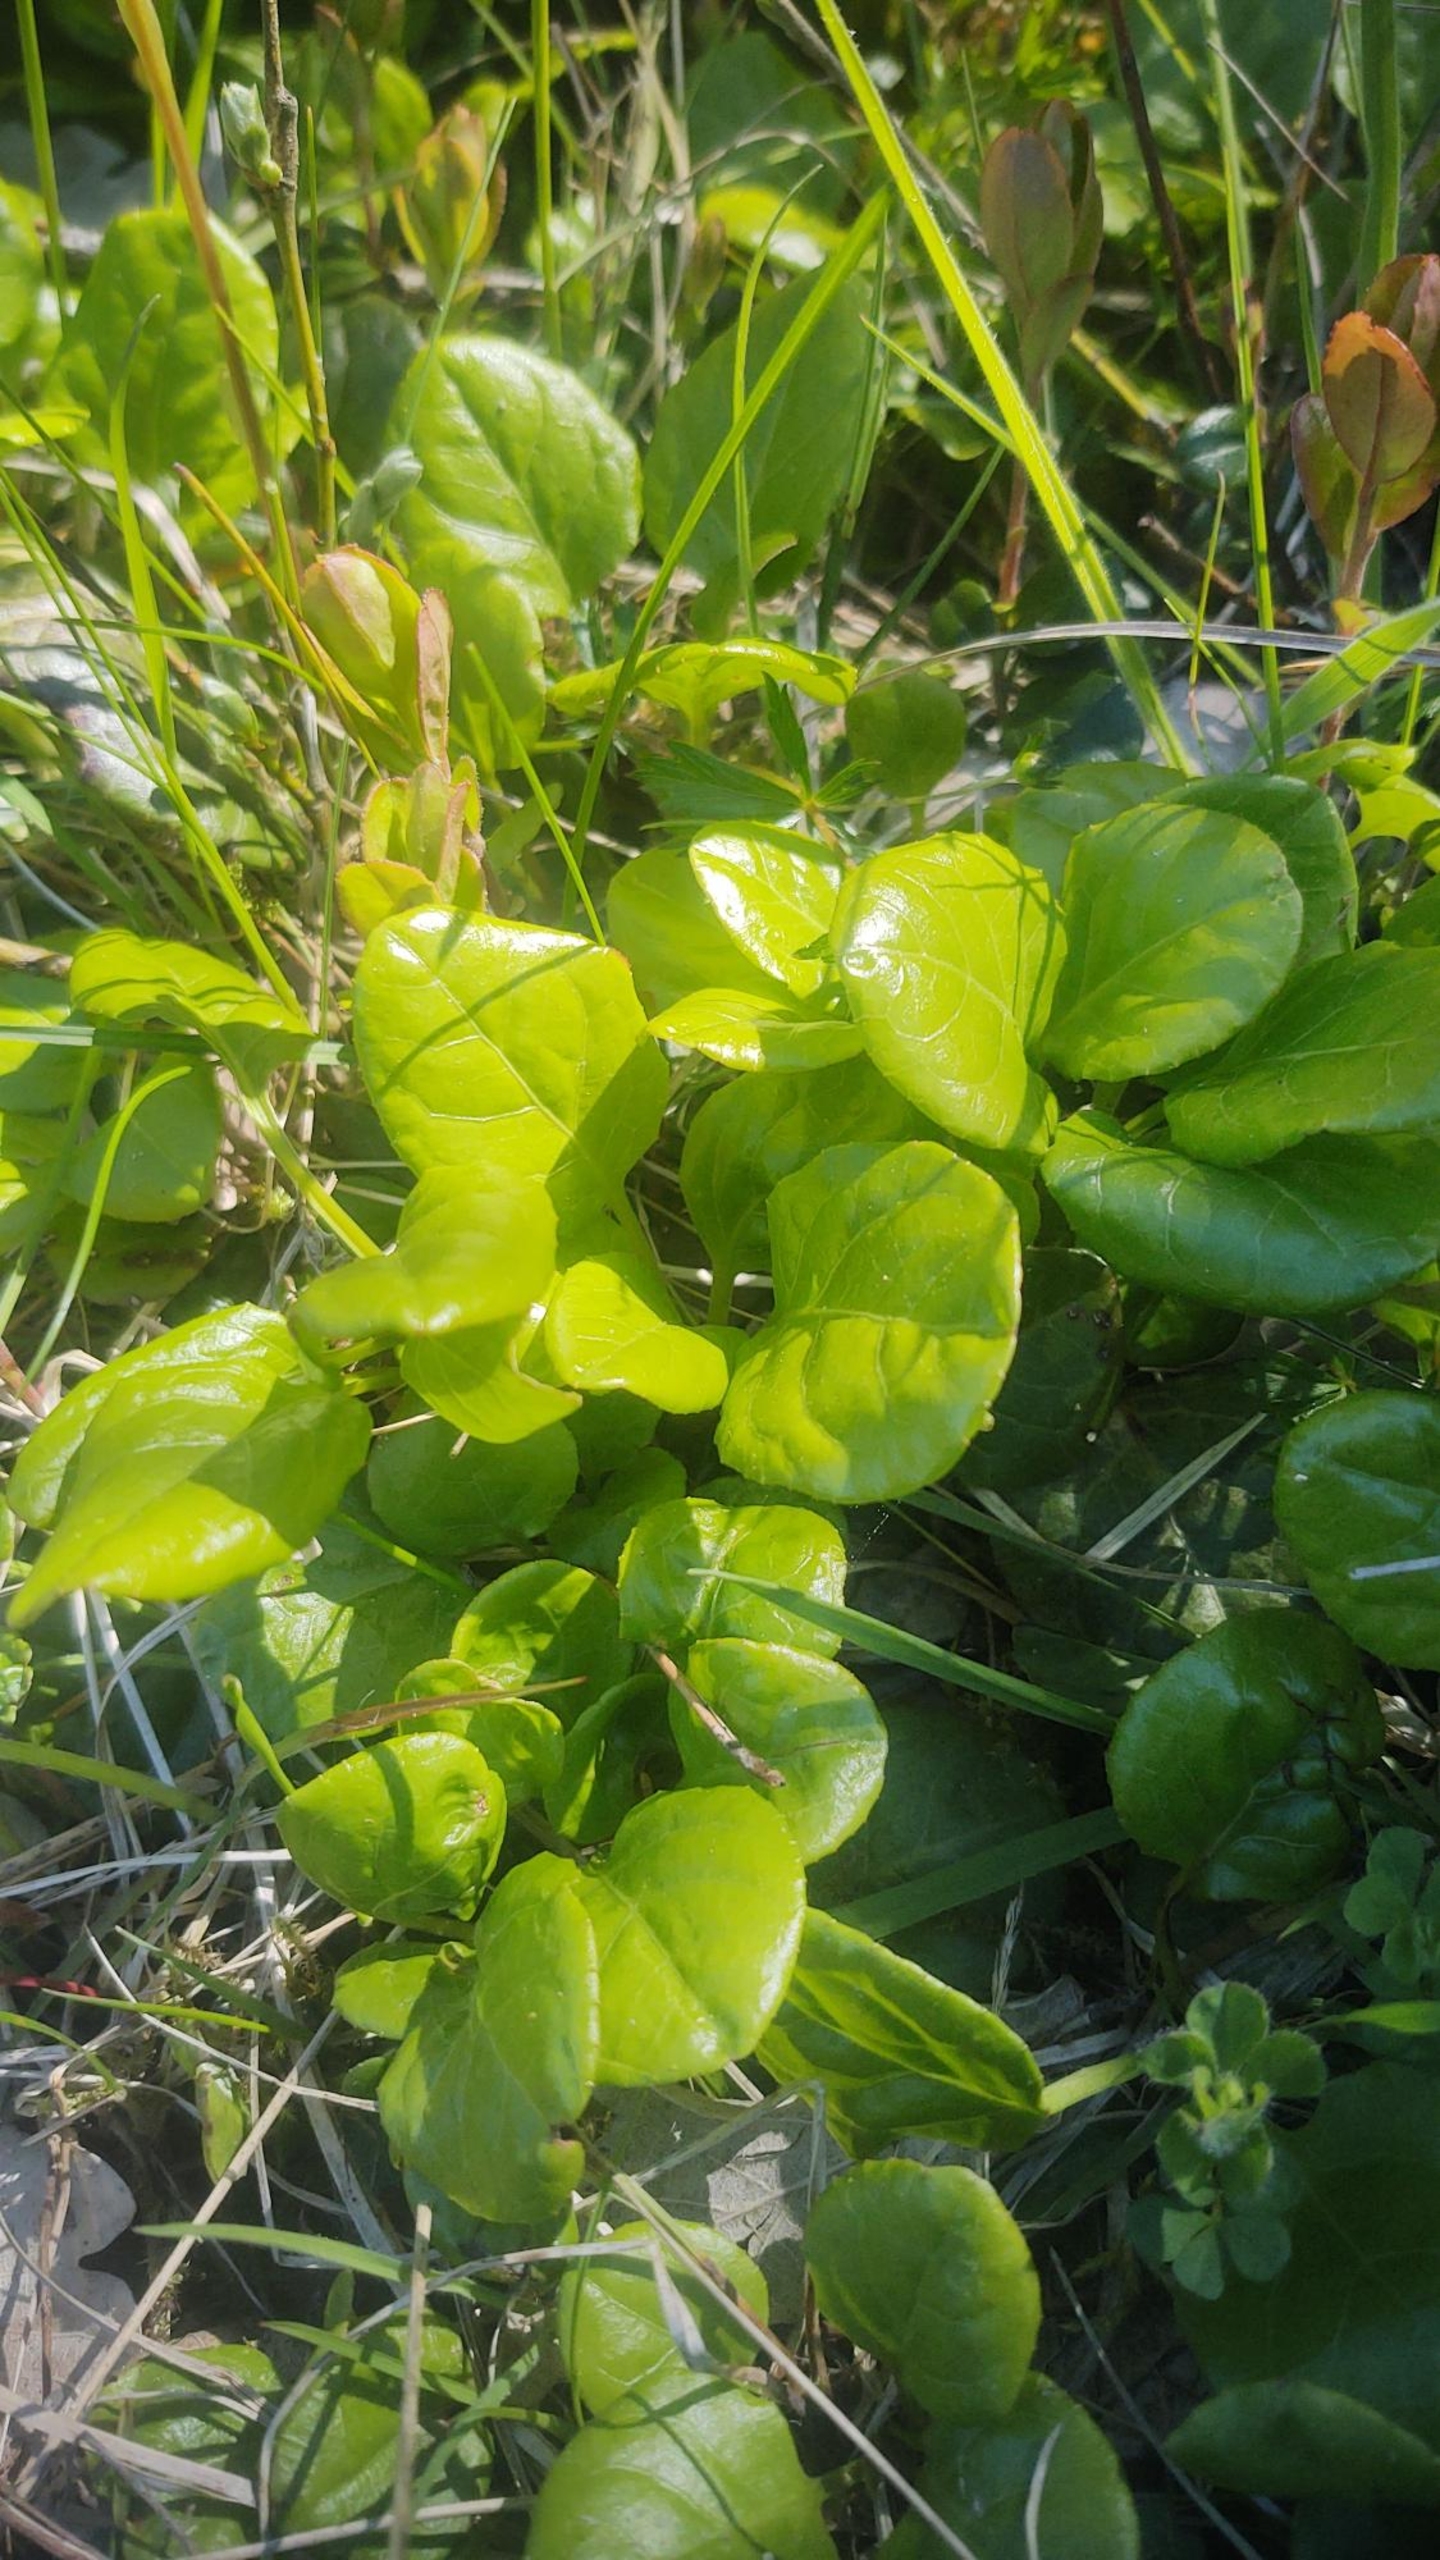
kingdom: Plantae
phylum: Tracheophyta
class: Magnoliopsida
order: Ericales
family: Ericaceae
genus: Pyrola
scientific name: Pyrola rotundifolia
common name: Mose-vintergrøn
